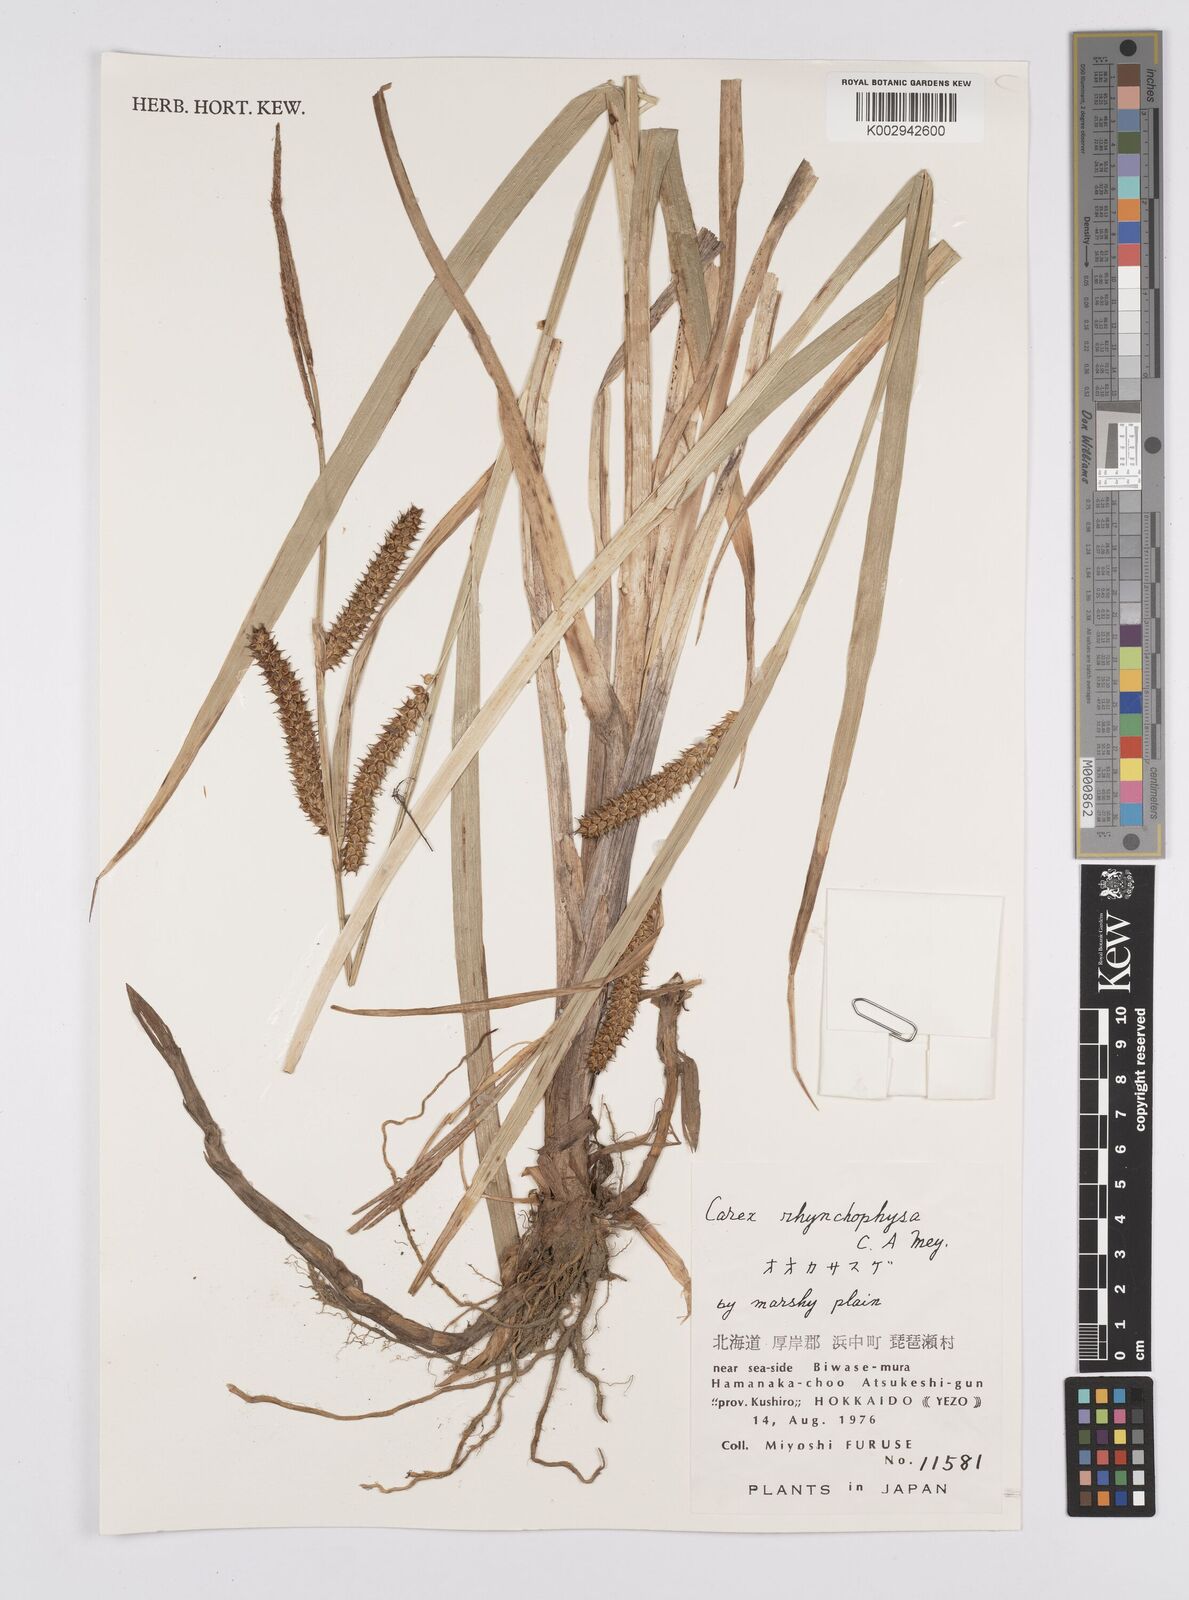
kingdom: Plantae
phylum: Tracheophyta
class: Liliopsida
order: Poales
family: Cyperaceae
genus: Carex
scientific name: Carex utriculata
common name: Beaked sedge
